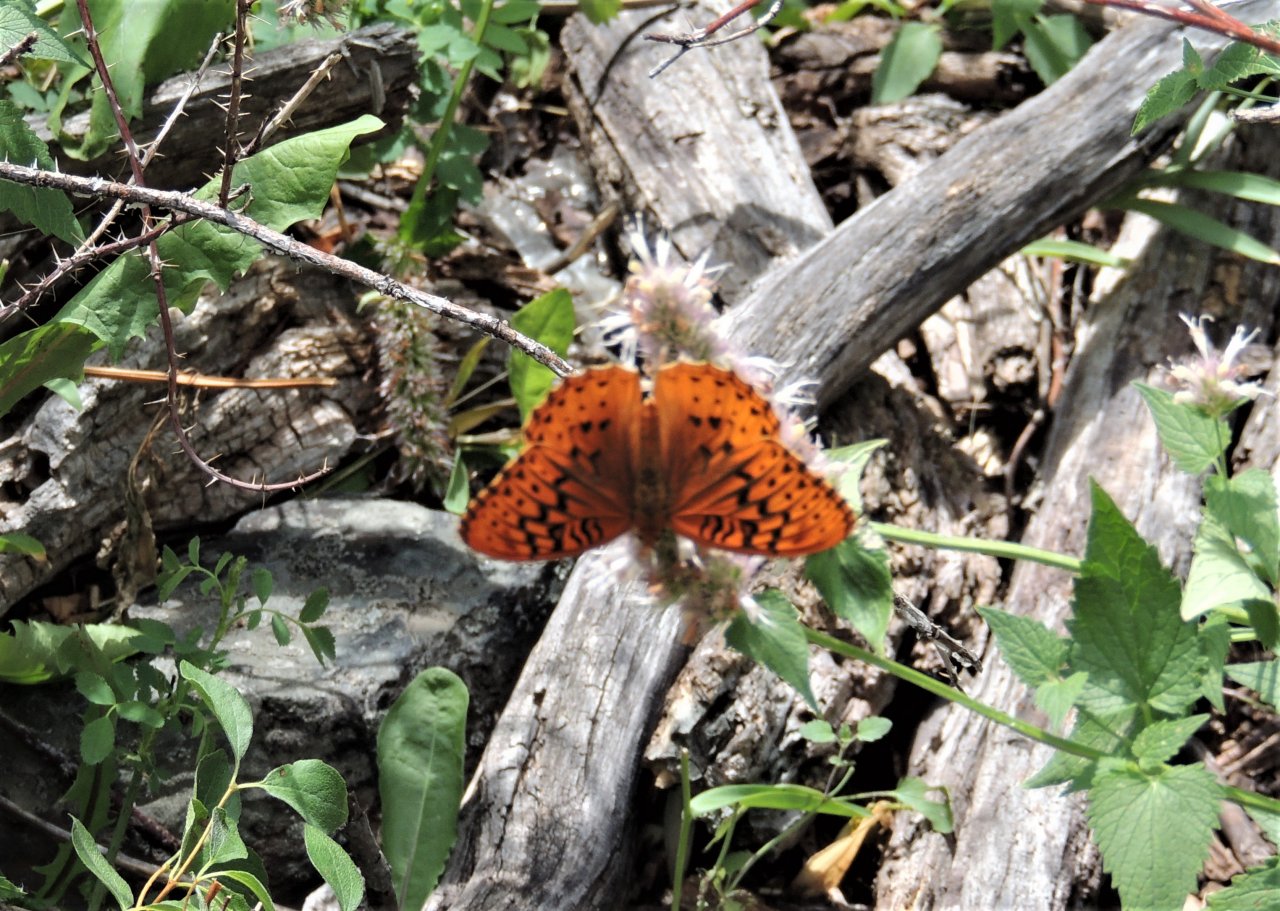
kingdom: Animalia
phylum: Arthropoda
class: Insecta
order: Lepidoptera
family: Nymphalidae
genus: Speyeria
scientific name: Speyeria cybele
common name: Great Spangled Fritillary
